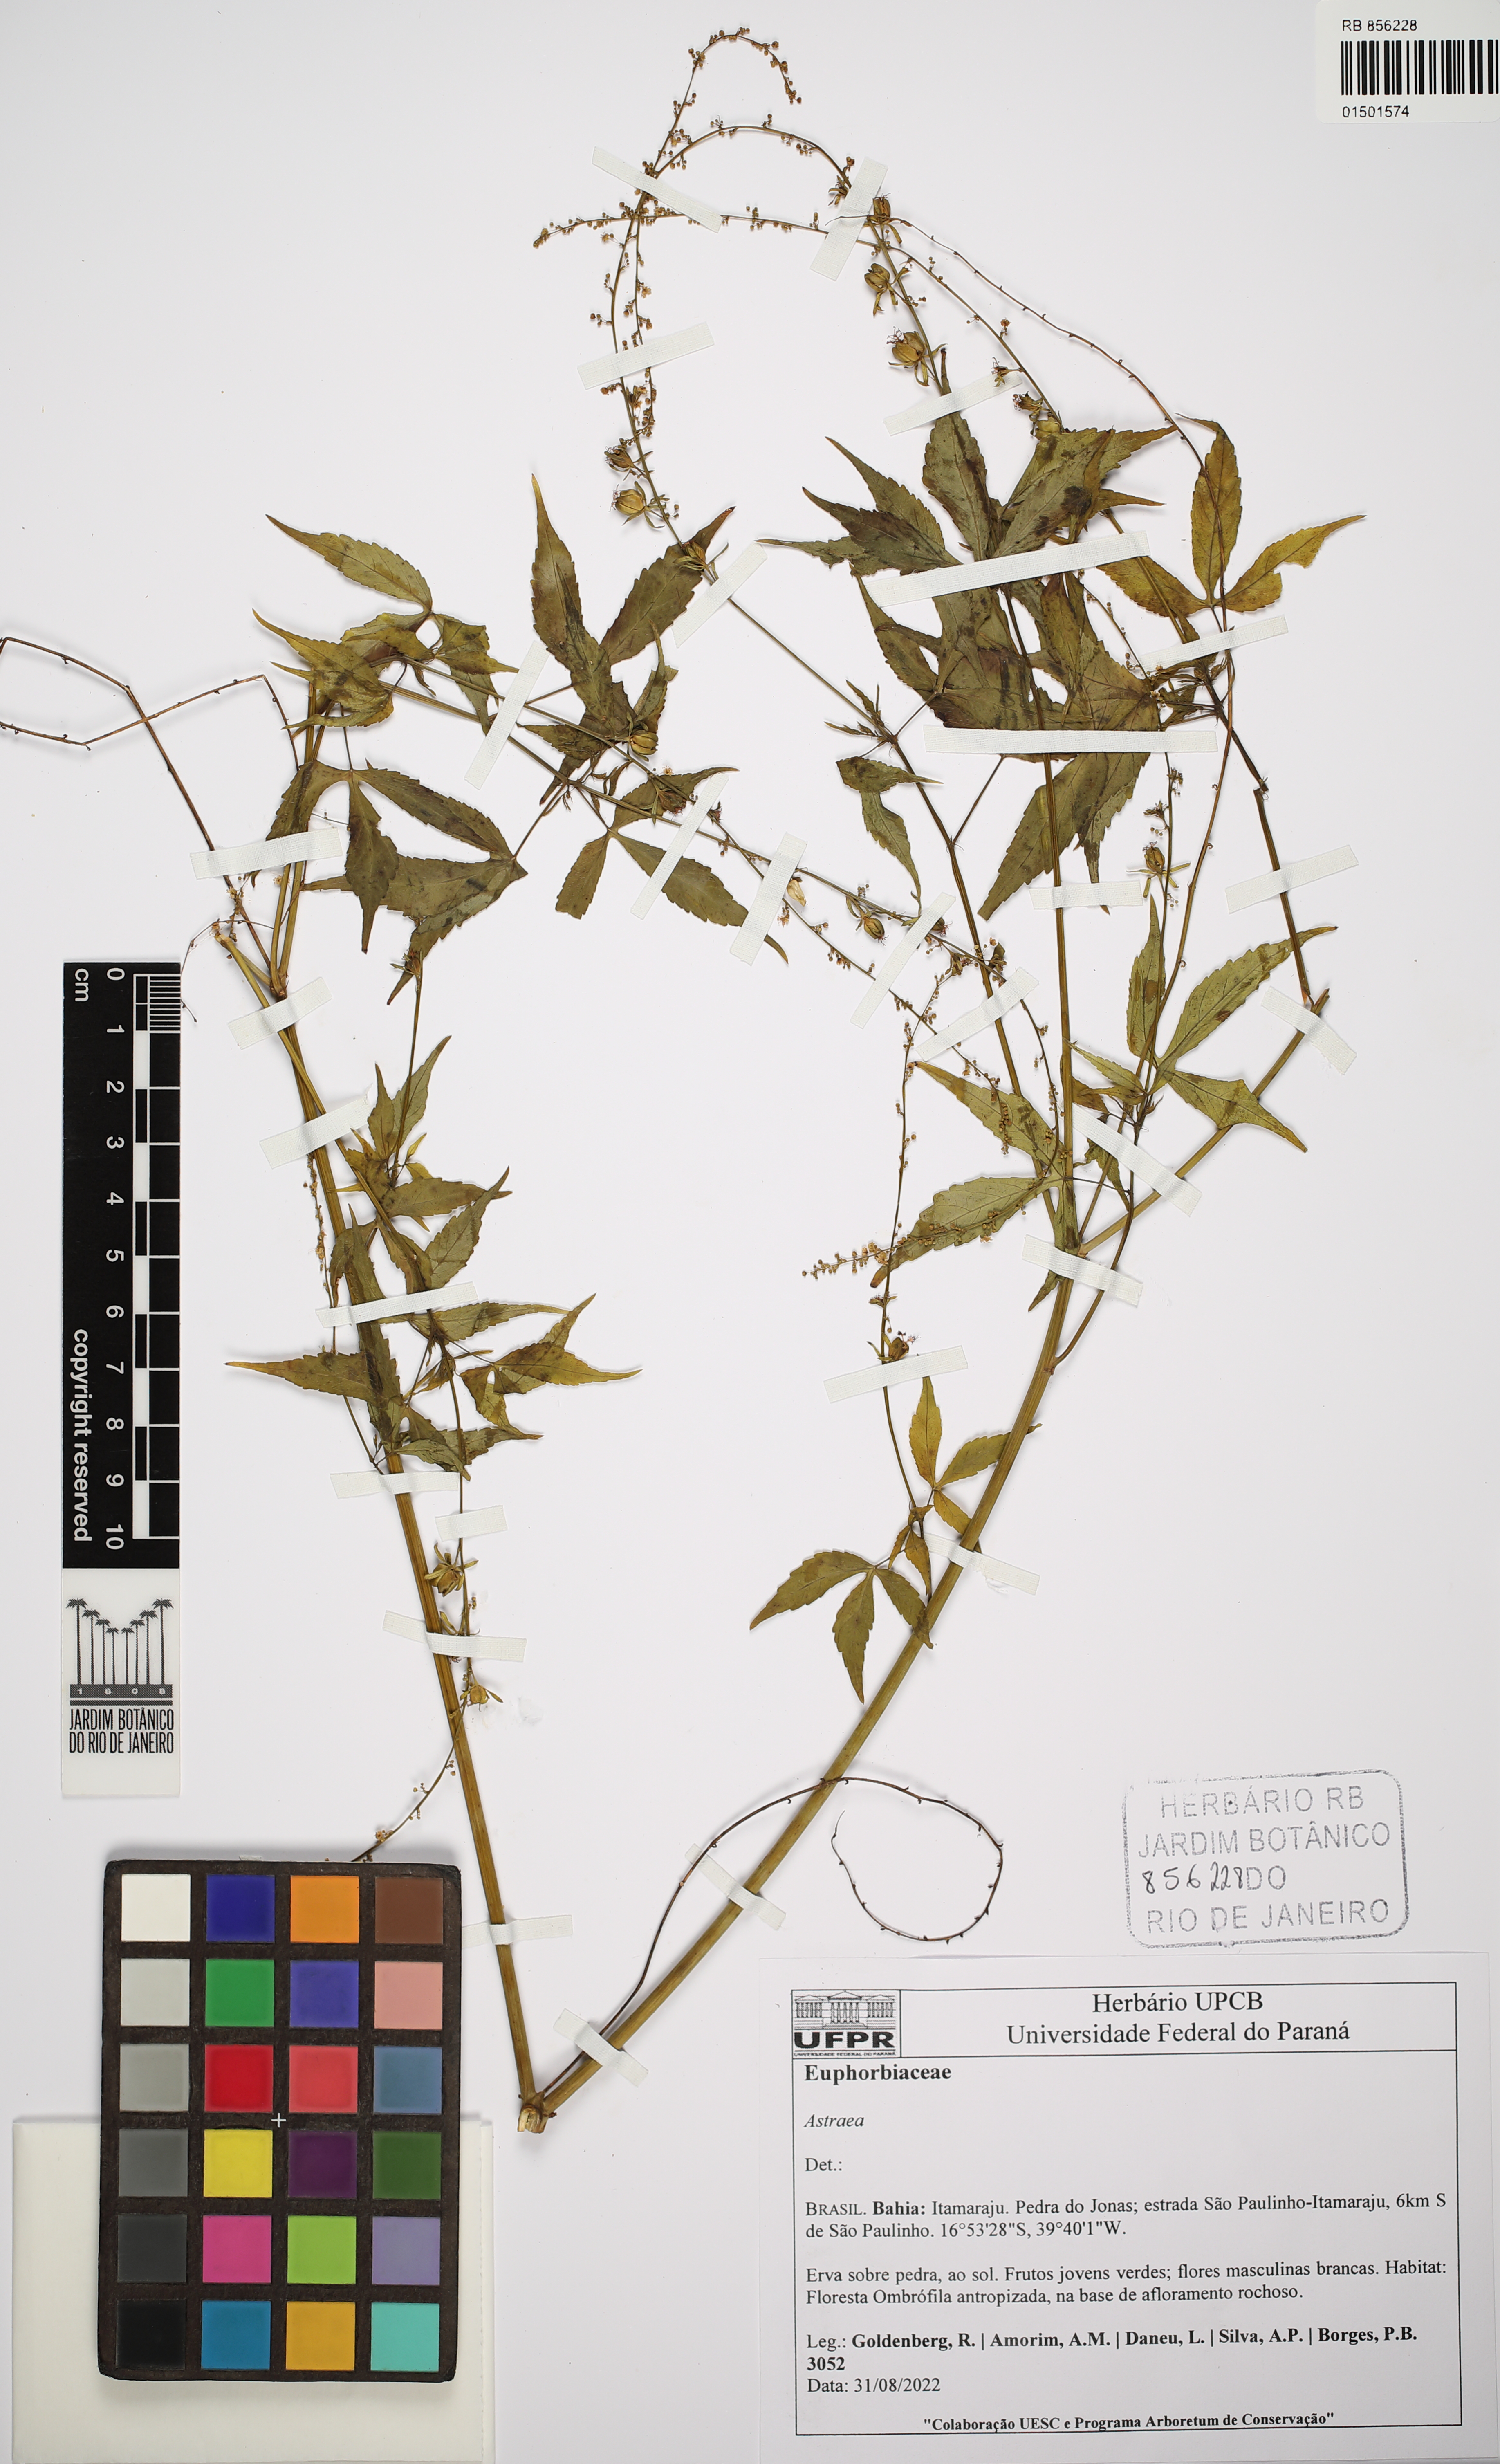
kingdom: Plantae
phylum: Tracheophyta
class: Magnoliopsida
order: Malpighiales
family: Euphorbiaceae
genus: Astraea
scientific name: Astraea
